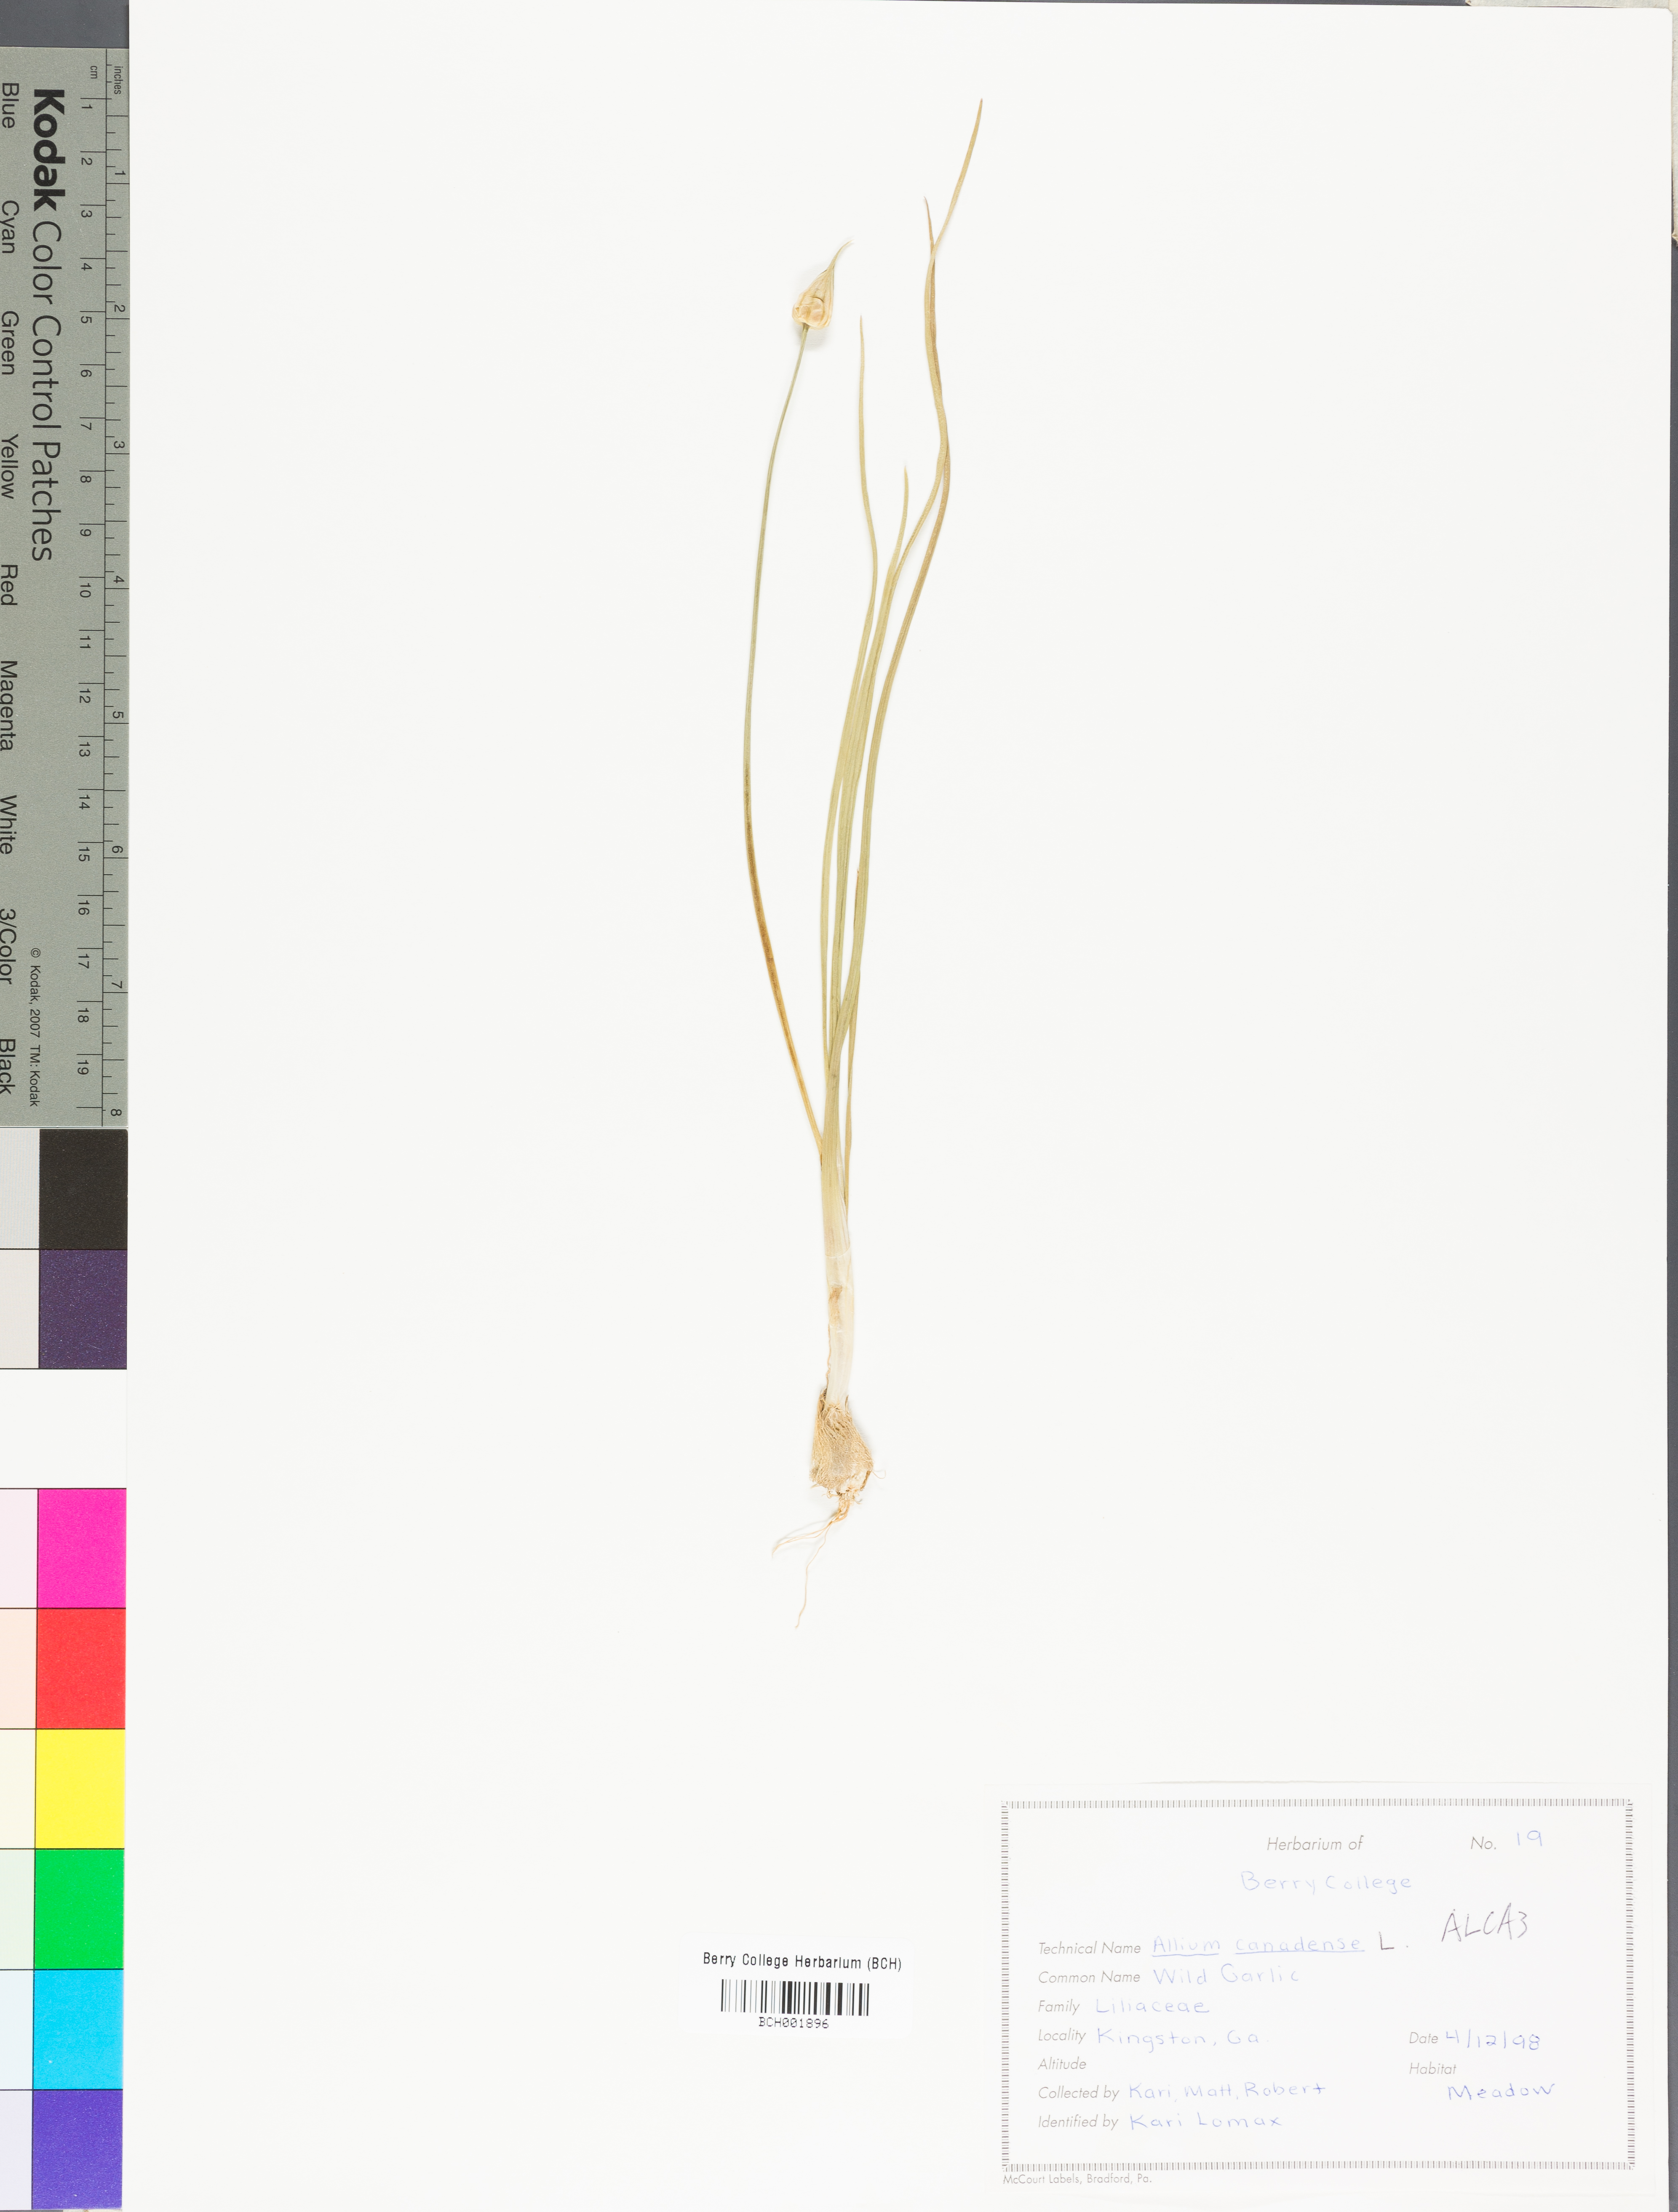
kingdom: Plantae
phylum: Tracheophyta
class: Liliopsida
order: Asparagales
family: Amaryllidaceae
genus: Allium
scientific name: Allium canadense
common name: Meadow garlic
